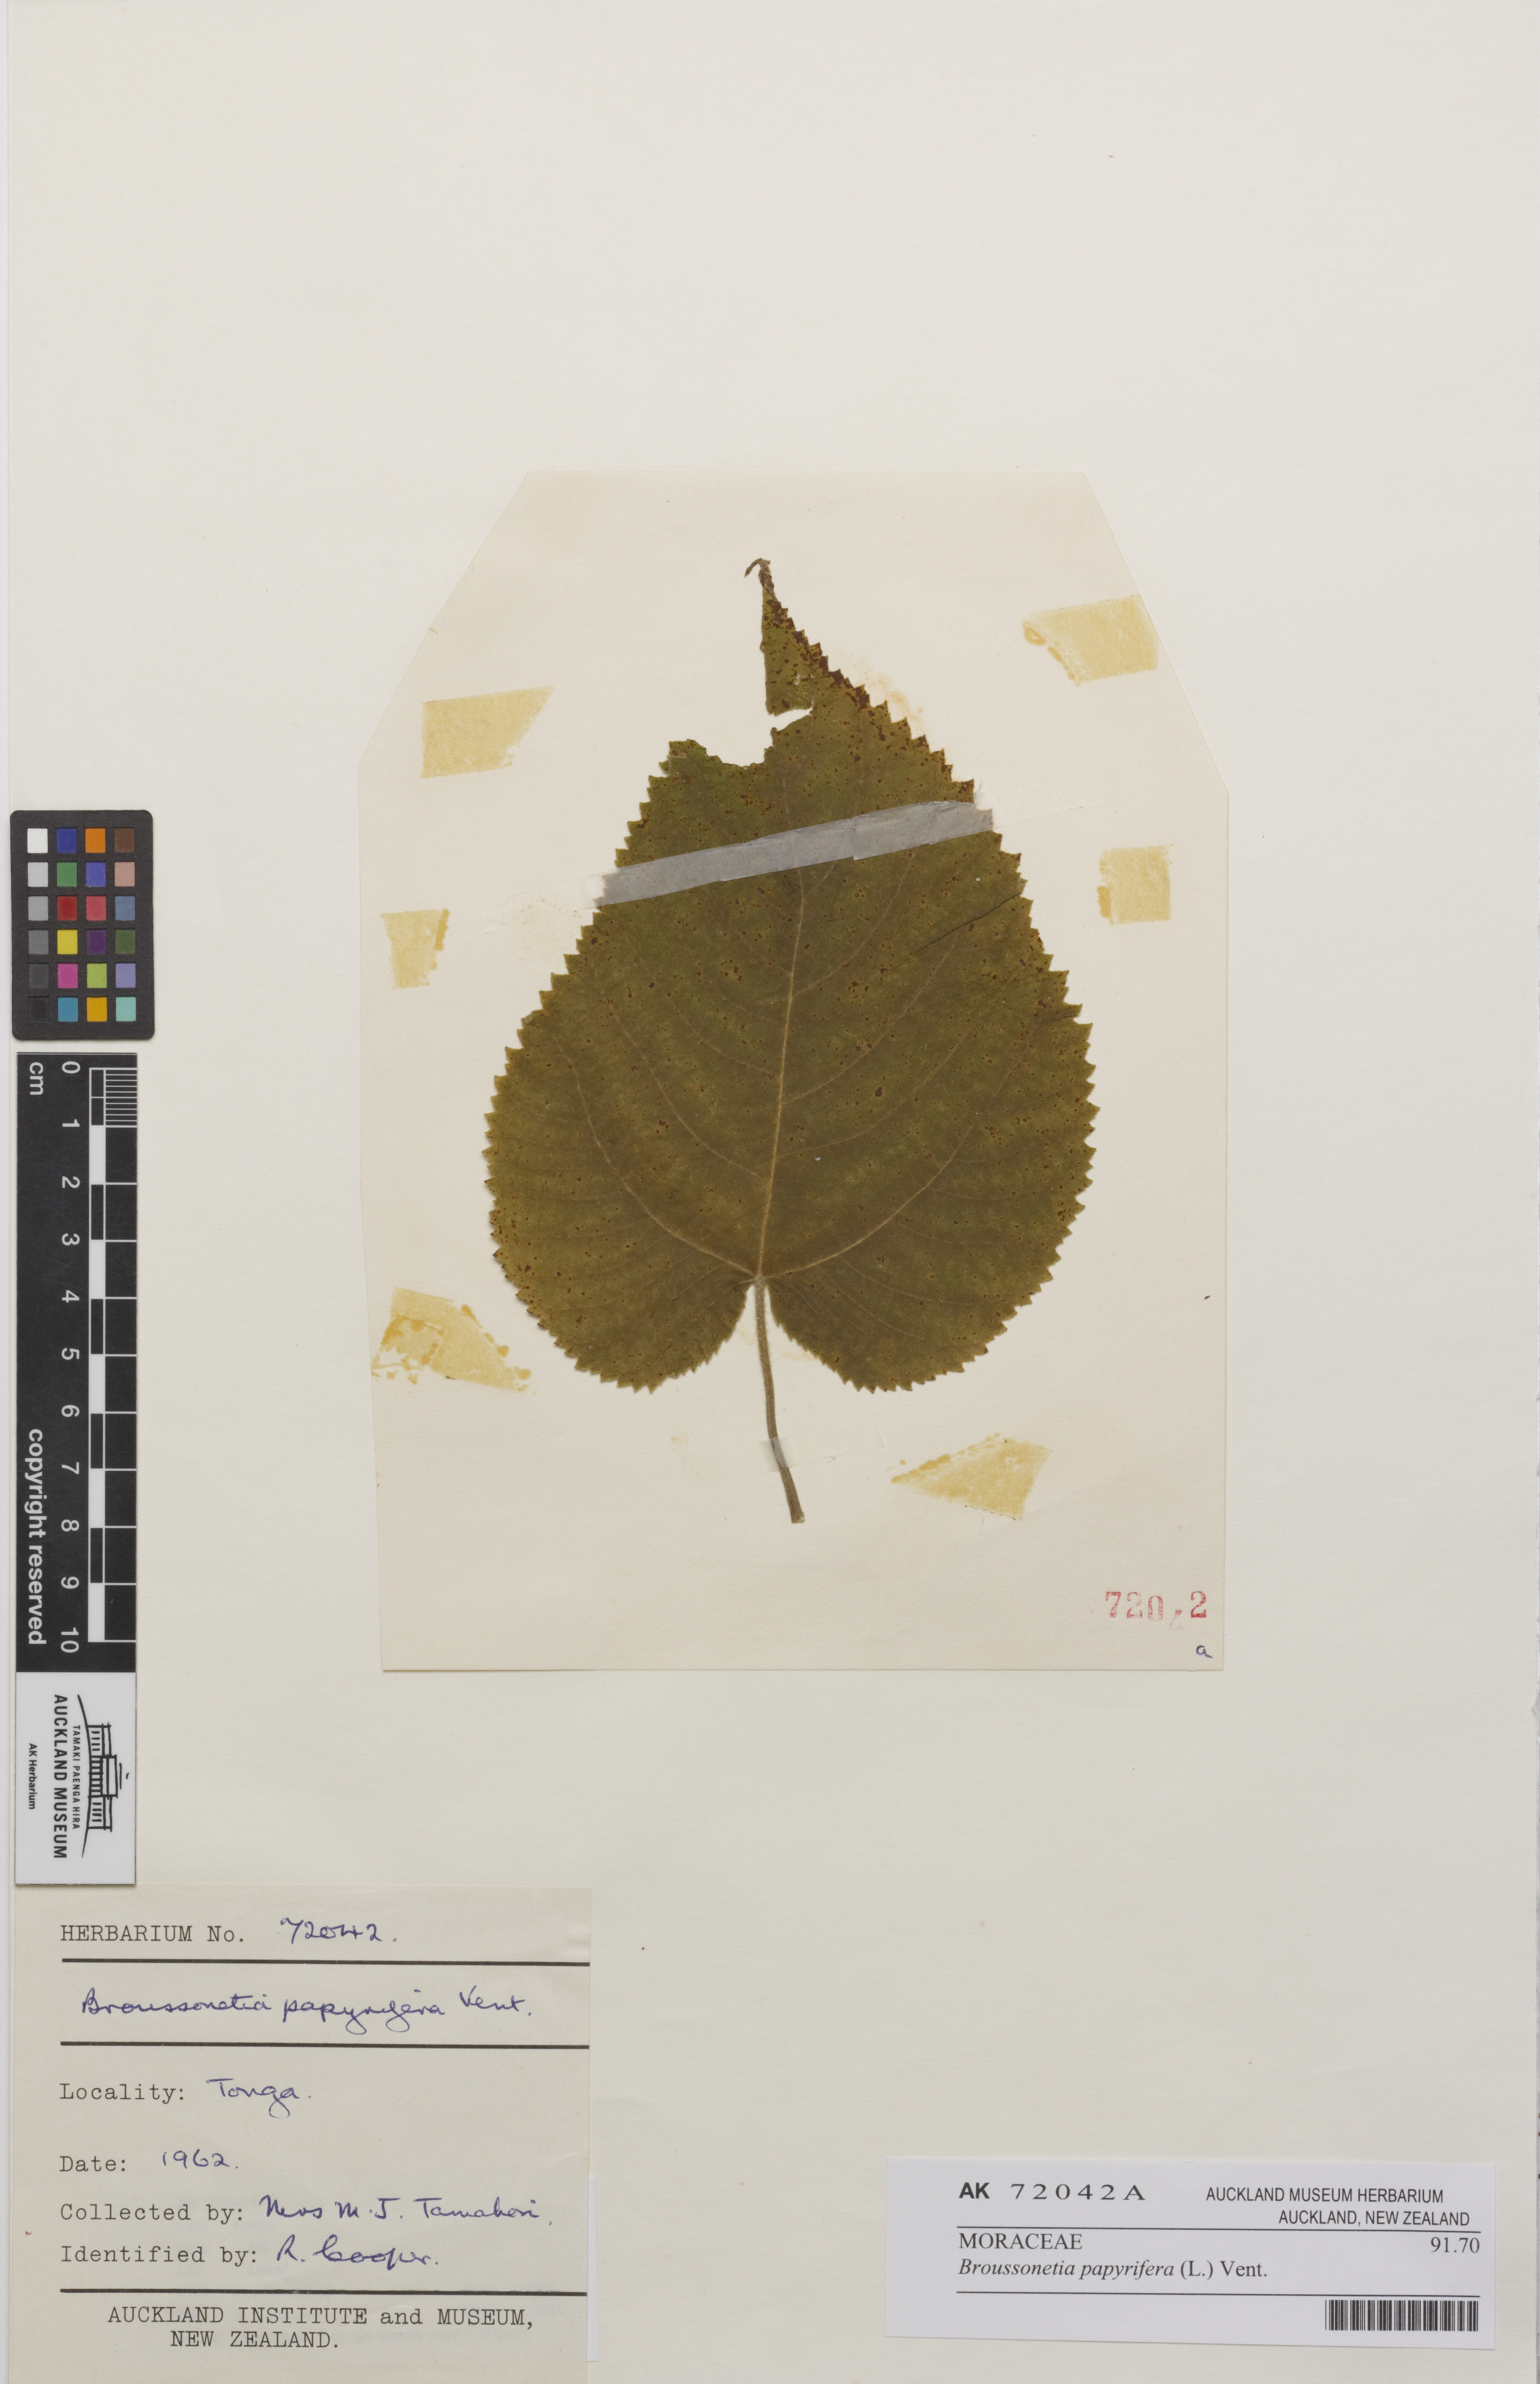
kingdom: Plantae
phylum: Tracheophyta
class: Magnoliopsida
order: Rosales
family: Moraceae
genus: Broussonetia
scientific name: Broussonetia papyrifera
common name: Paper mulberry
